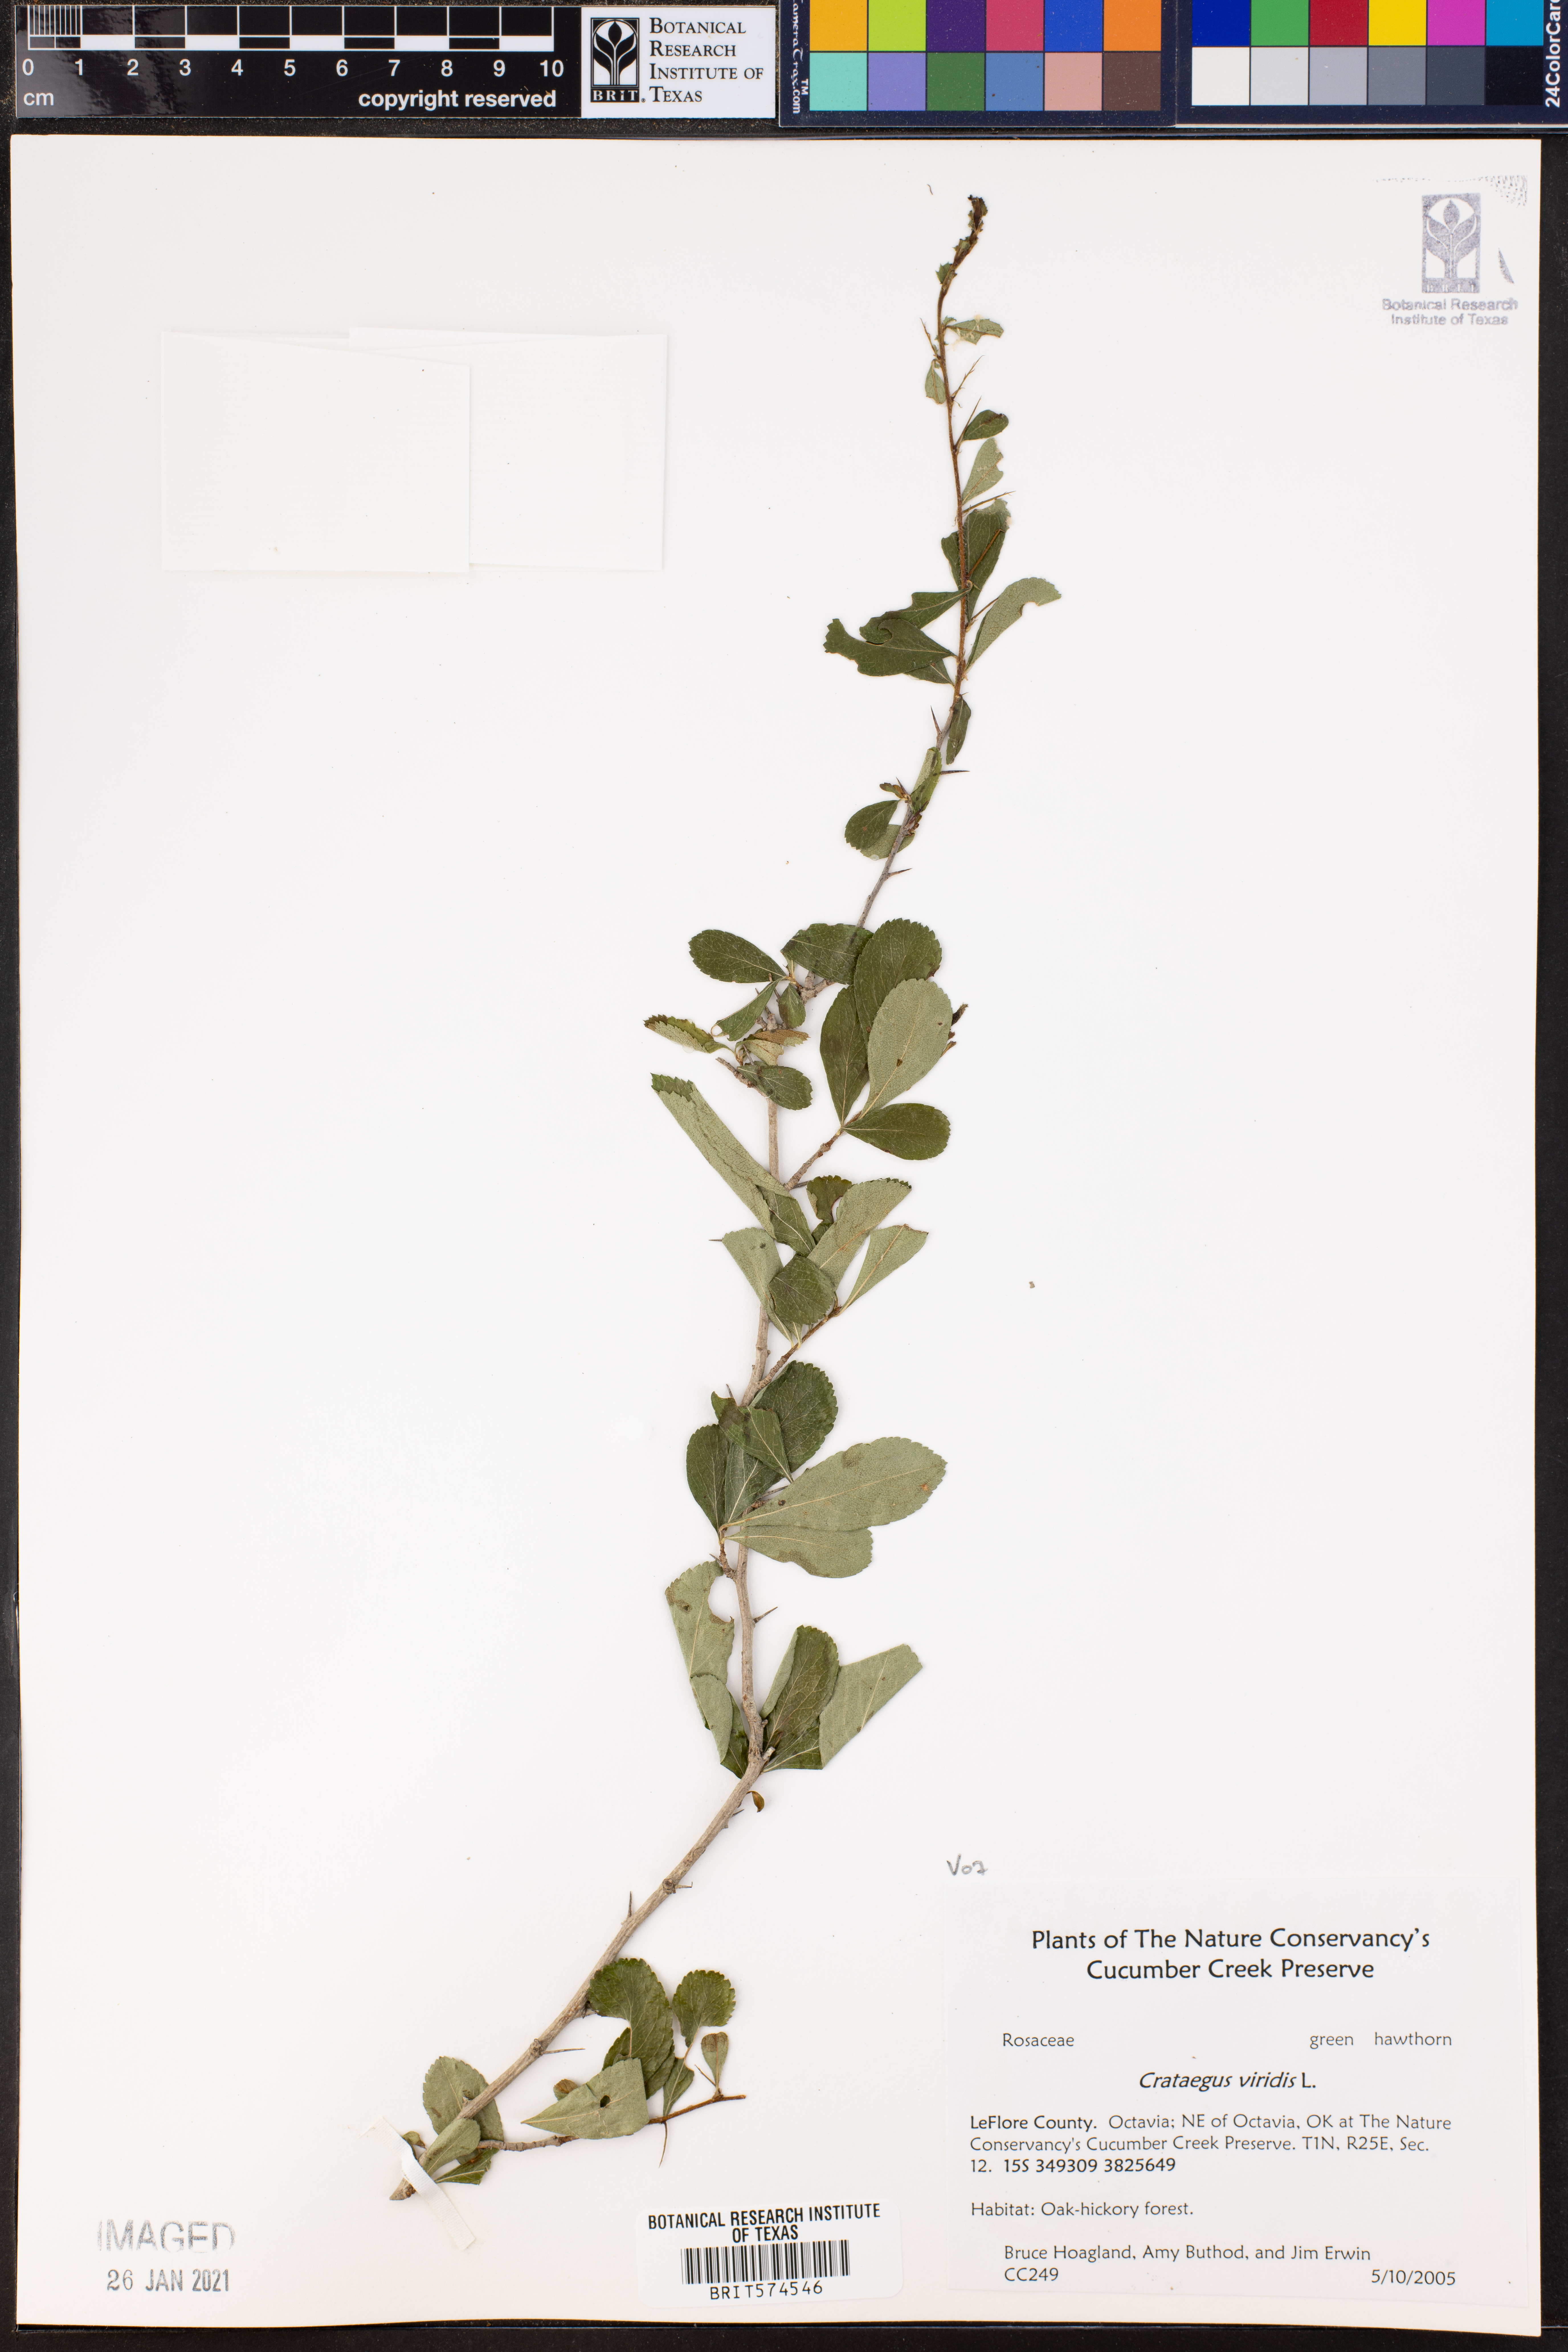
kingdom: Plantae
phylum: Tracheophyta
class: Magnoliopsida
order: Rosales
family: Rosaceae
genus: Crataegus
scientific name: Crataegus viridis
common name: Southernthorn
